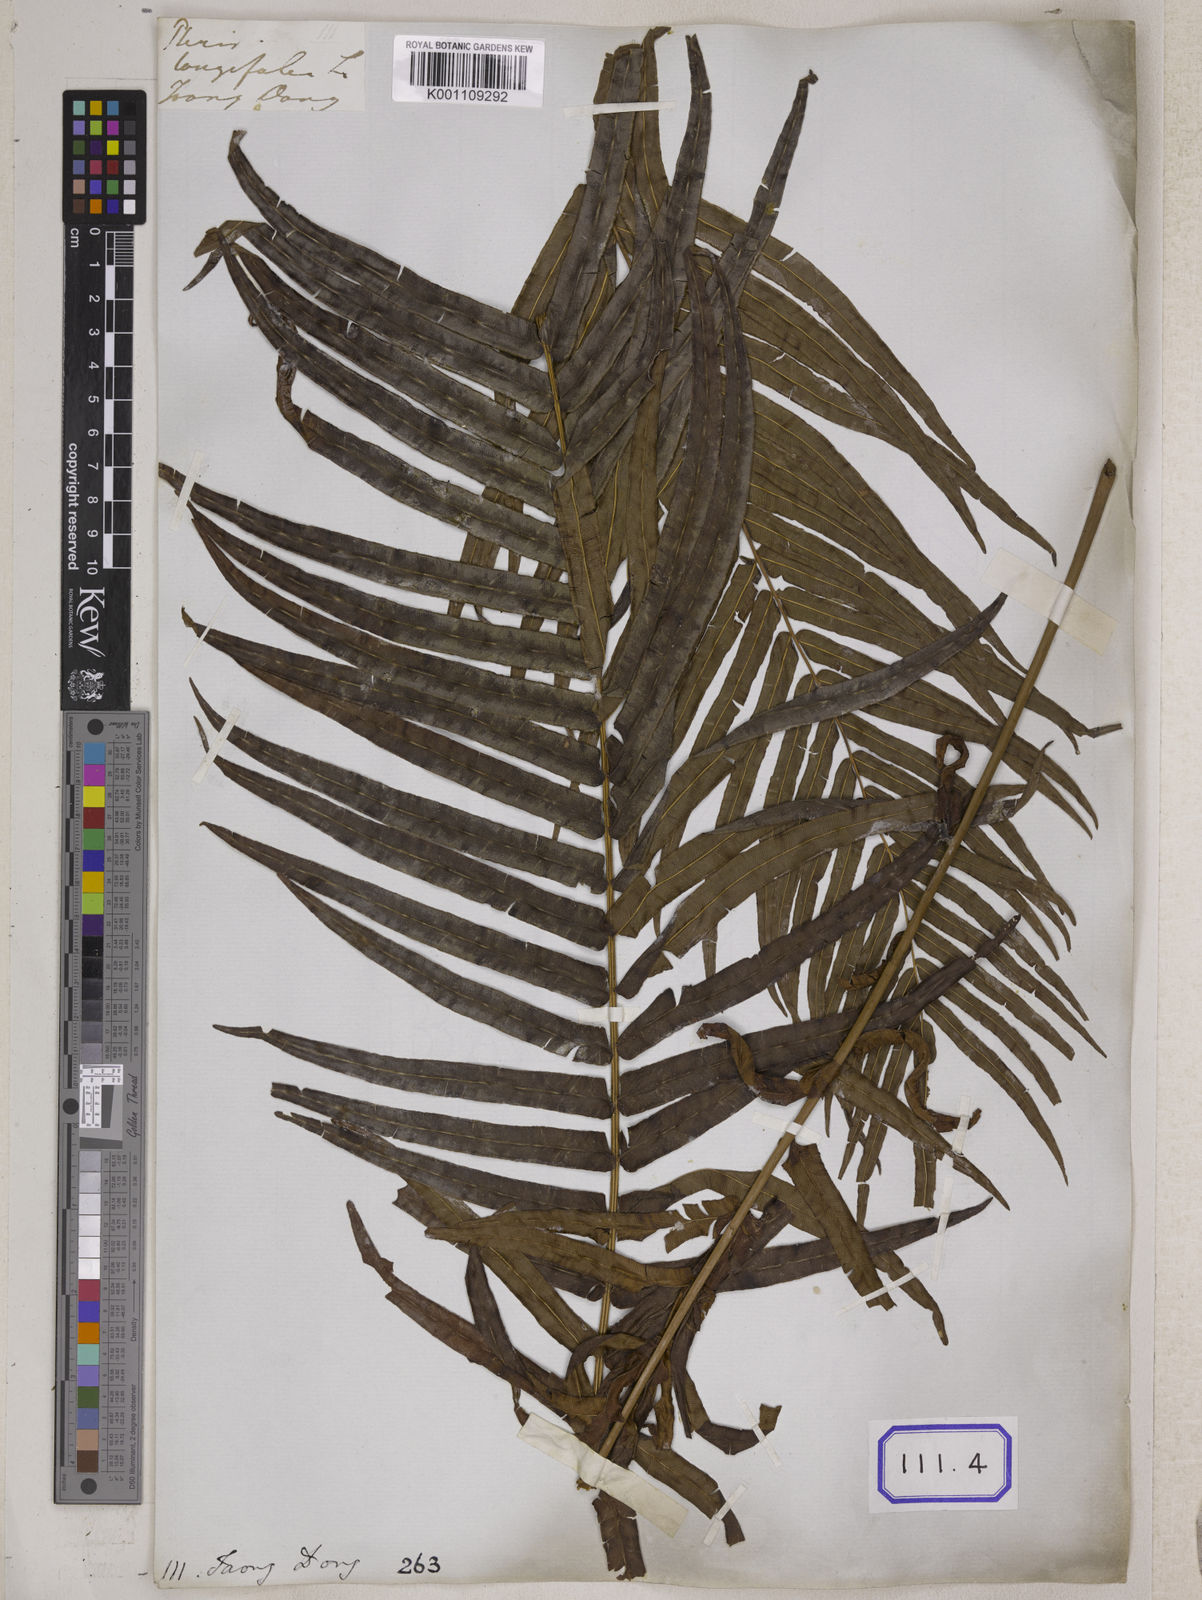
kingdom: Plantae
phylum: Tracheophyta
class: Polypodiopsida
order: Polypodiales
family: Pteridaceae
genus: Pteris
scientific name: Pteris longifolia
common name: Longleaf brake
